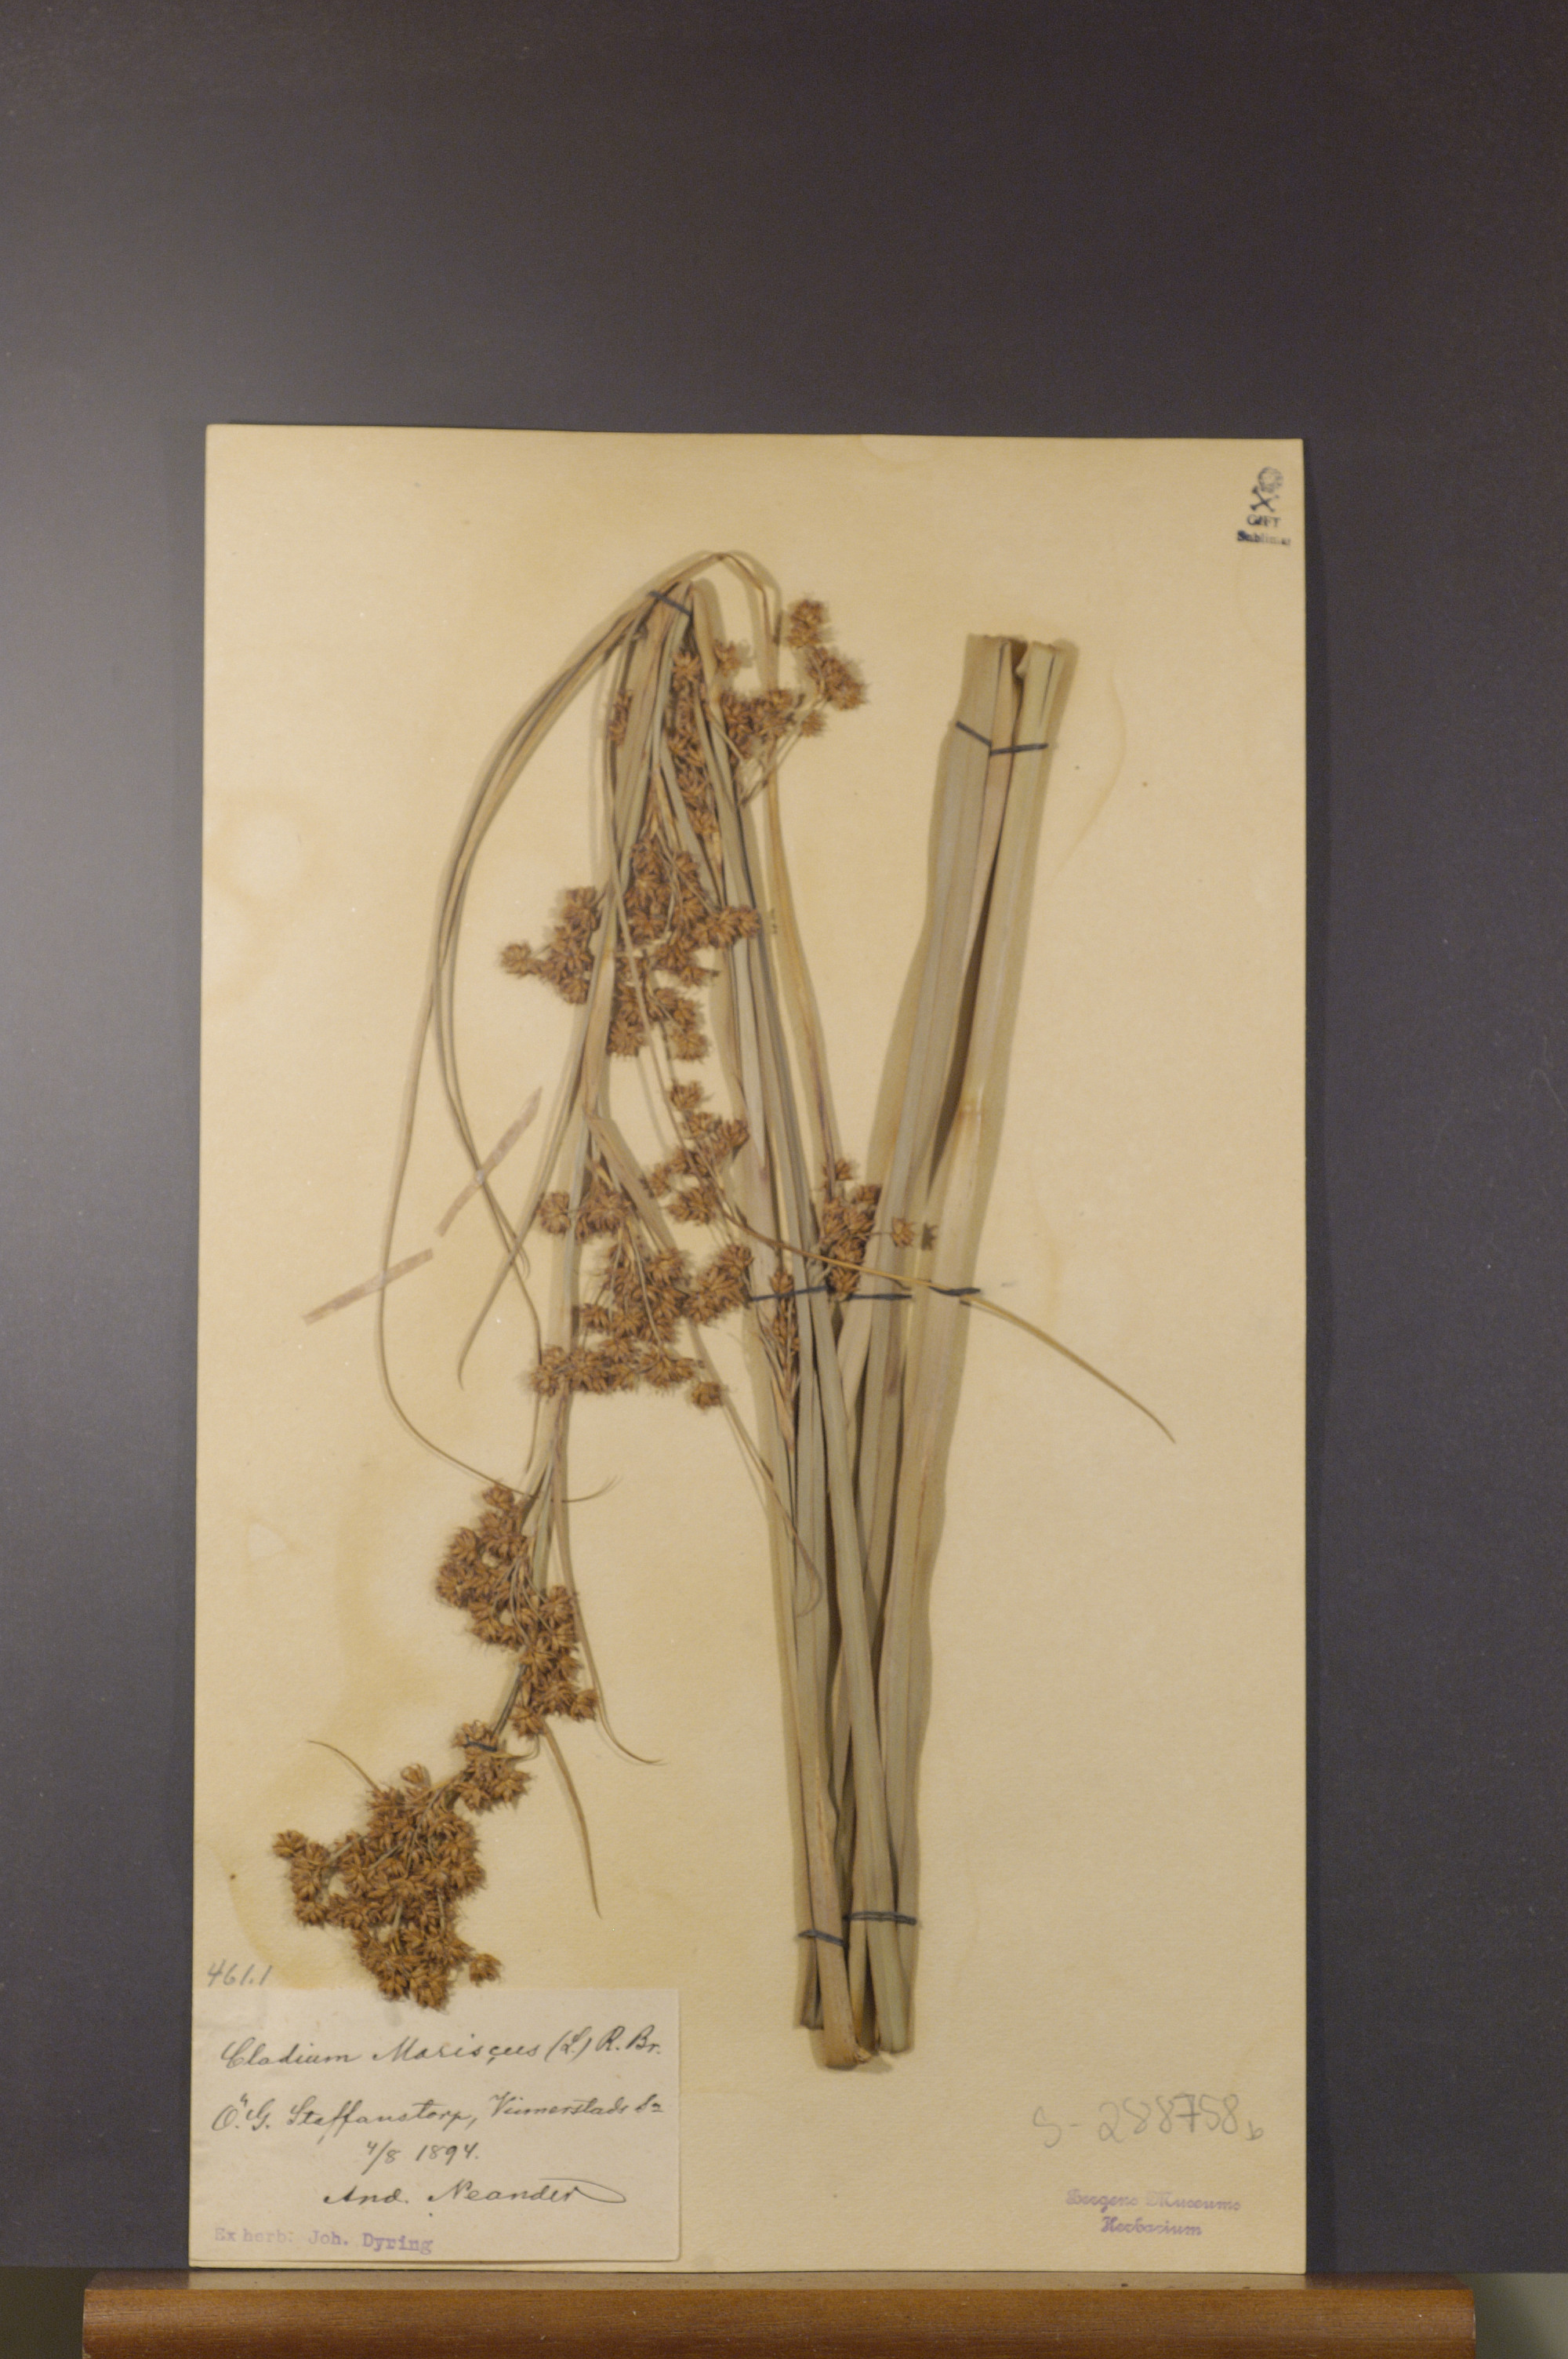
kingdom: Plantae
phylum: Tracheophyta
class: Liliopsida
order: Poales
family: Cyperaceae
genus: Cladium
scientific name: Cladium mariscus
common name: Great fen-sedge
